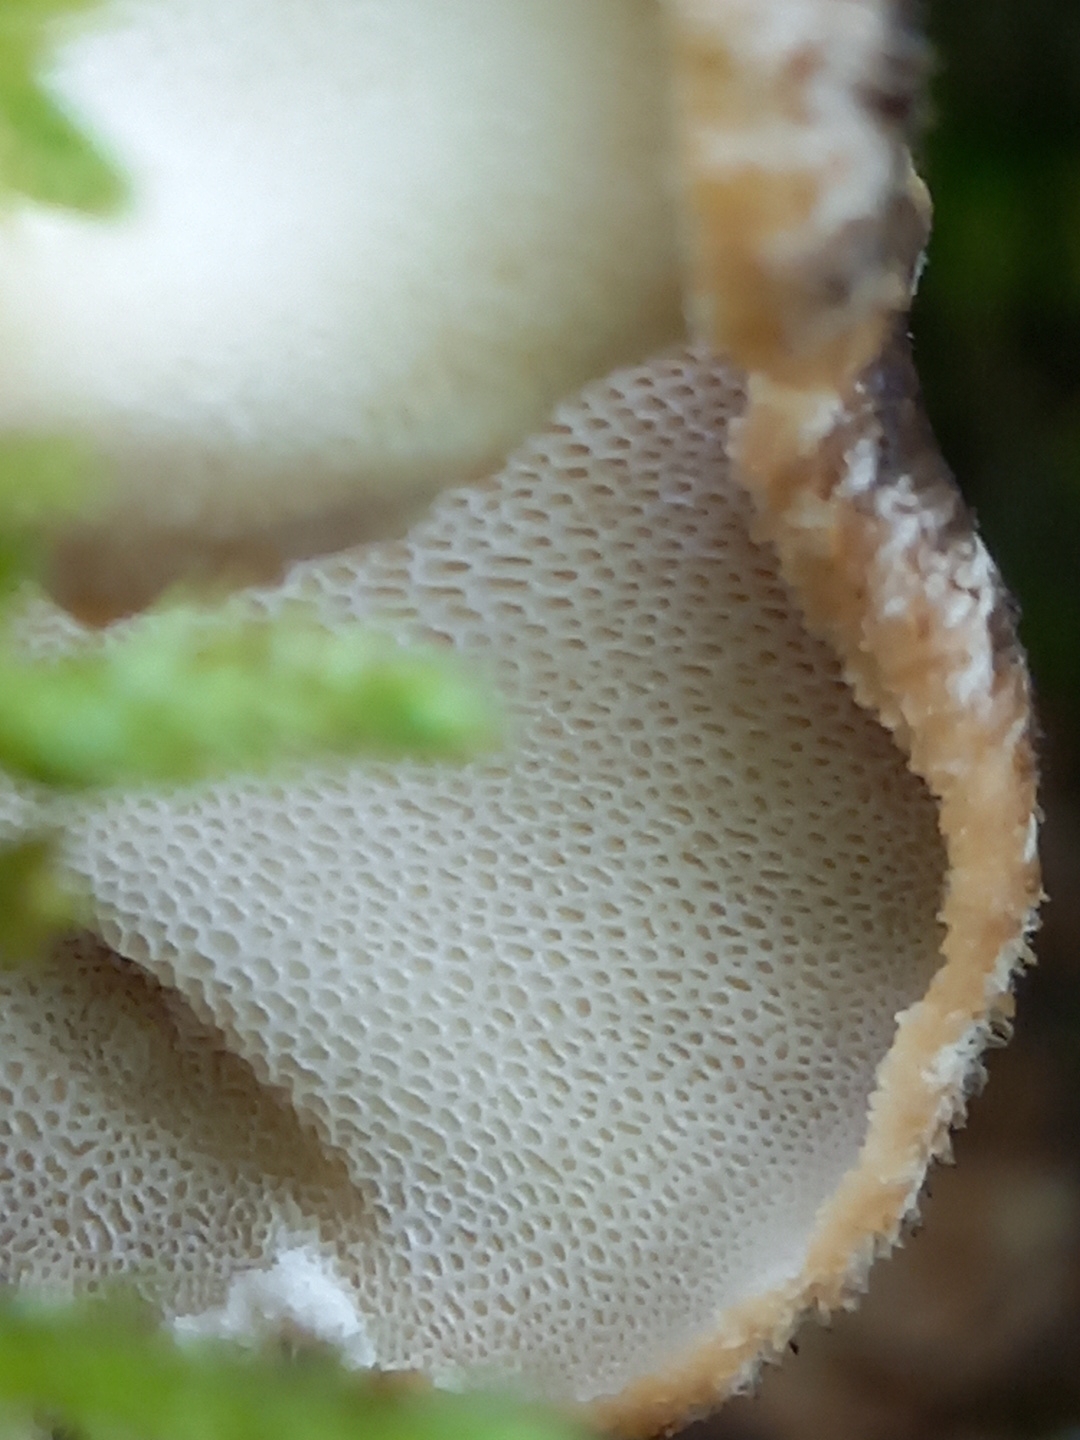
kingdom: Fungi
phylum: Basidiomycota
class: Agaricomycetes
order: Polyporales
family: Polyporaceae
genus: Polyporus
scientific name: Polyporus tuberaster
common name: knoldet stilkporesvamp
